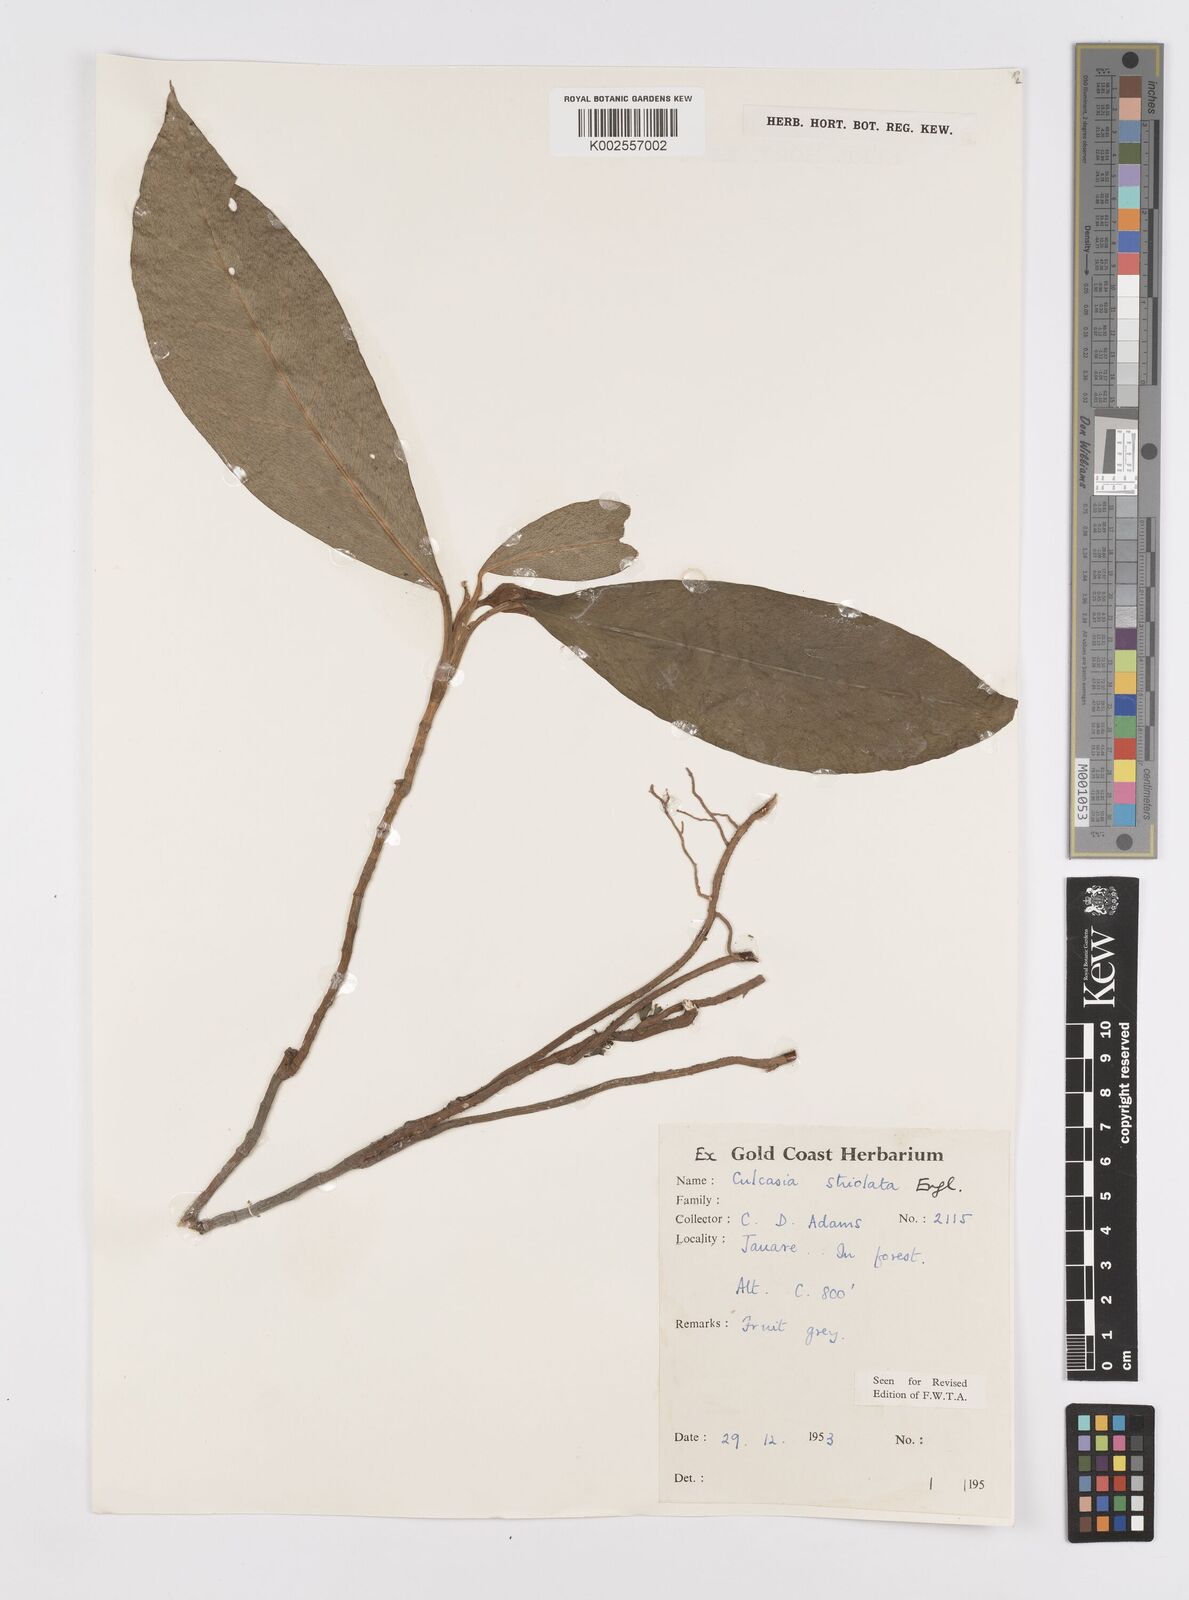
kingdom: Plantae
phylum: Tracheophyta
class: Liliopsida
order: Alismatales
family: Araceae
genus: Culcasia
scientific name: Culcasia striolata
